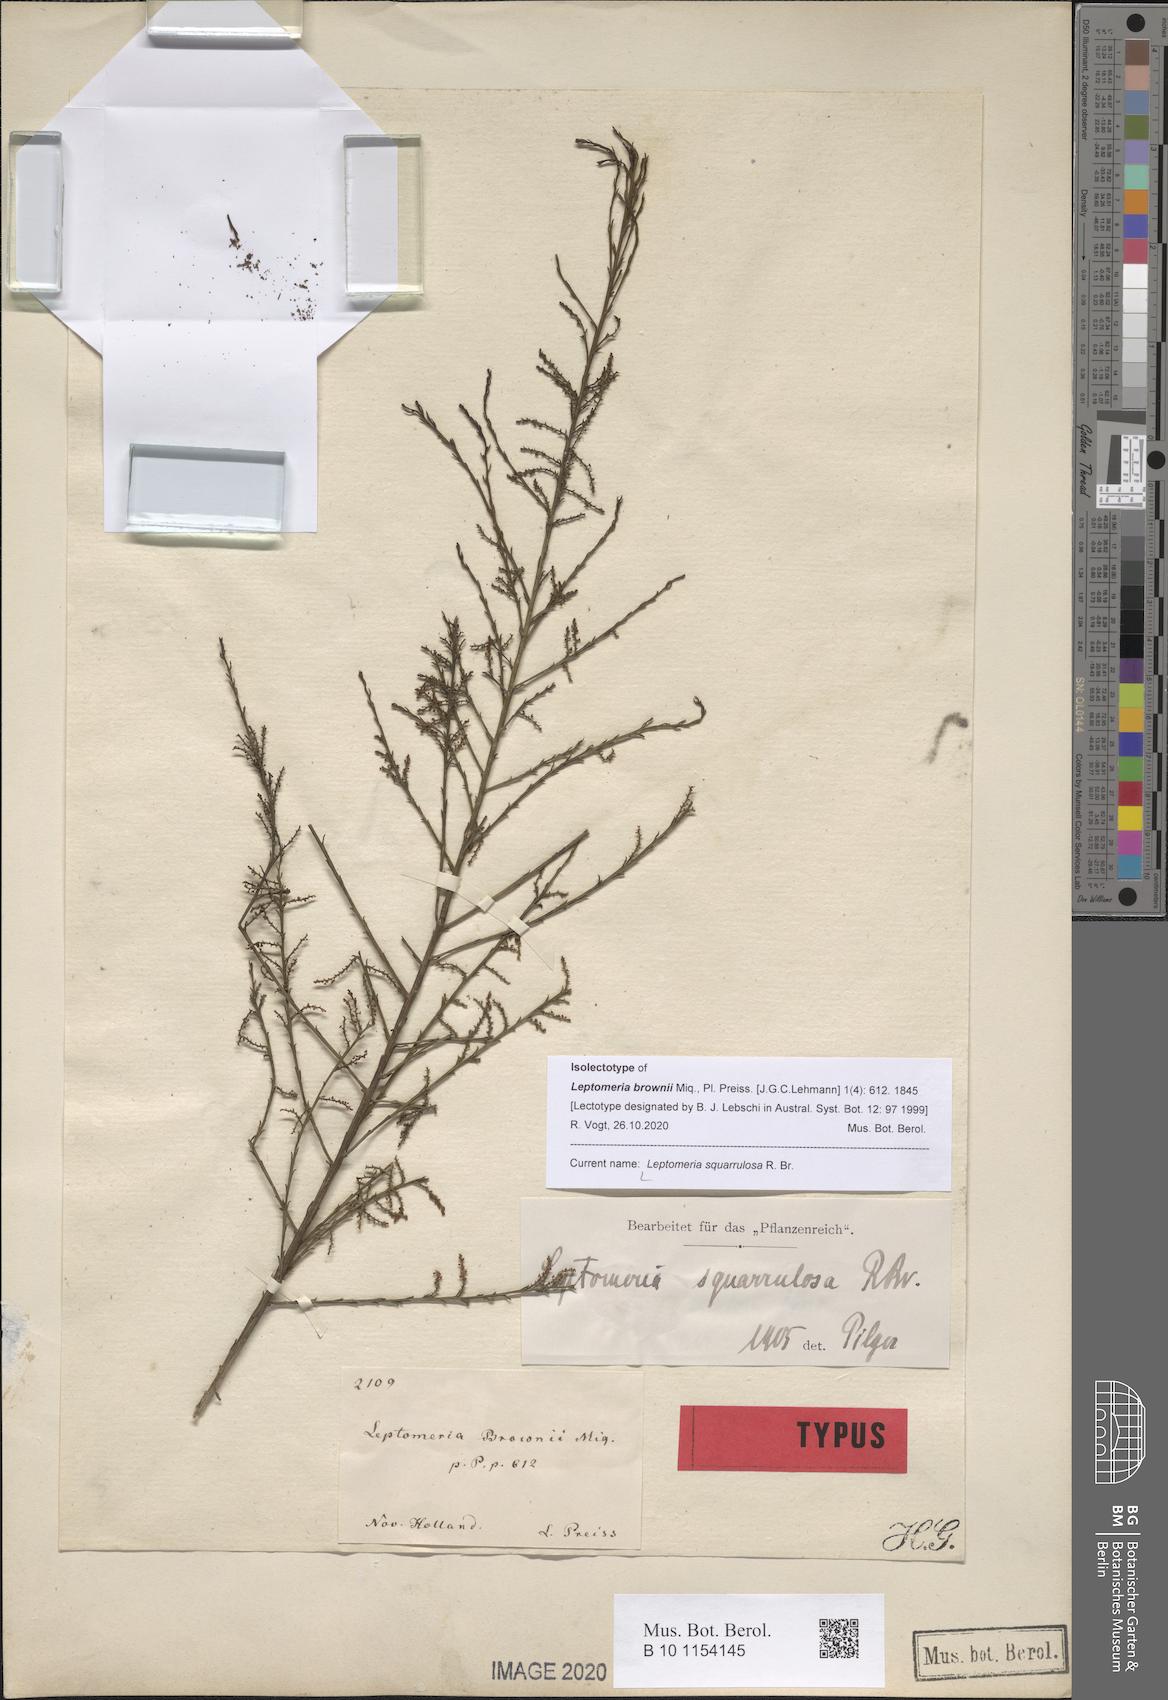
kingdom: Plantae
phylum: Tracheophyta
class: Magnoliopsida
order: Santalales
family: Amphorogynaceae
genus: Leptomeria
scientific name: Leptomeria squarrulosa
